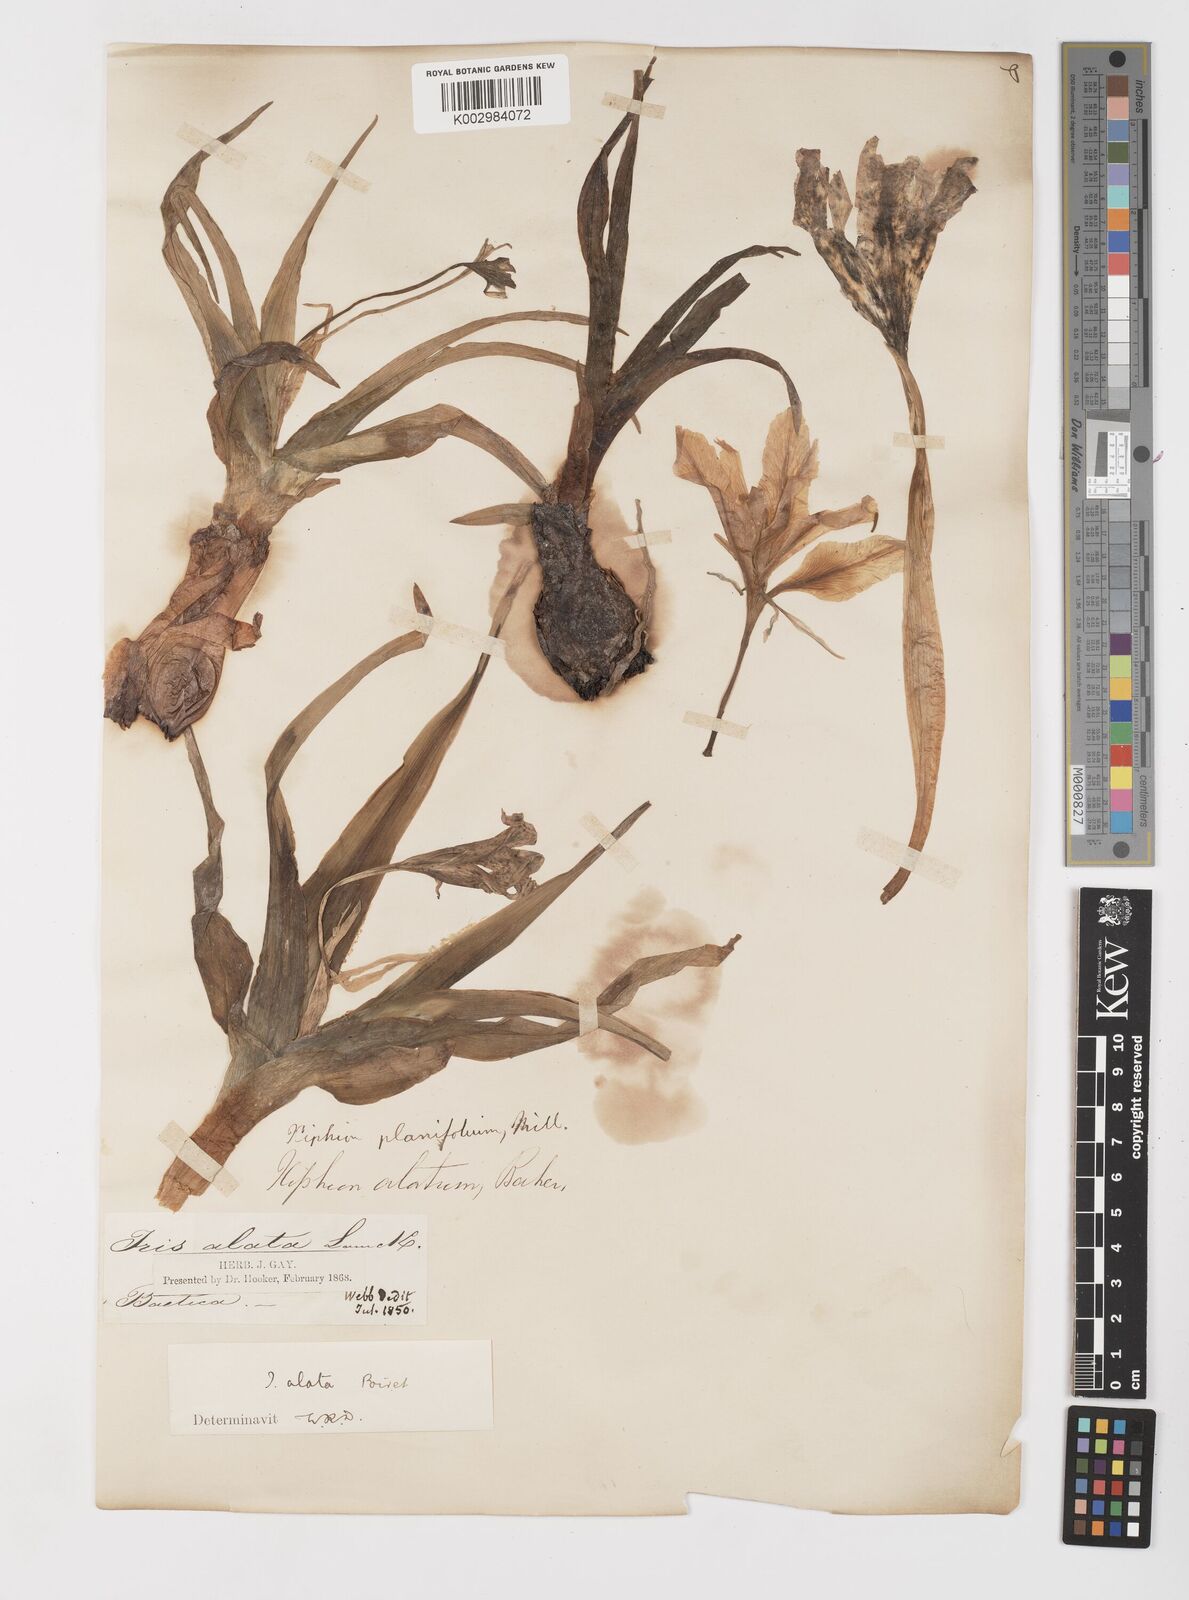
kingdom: Plantae
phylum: Tracheophyta
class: Liliopsida
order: Asparagales
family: Iridaceae
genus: Iris
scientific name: Iris planifolia
